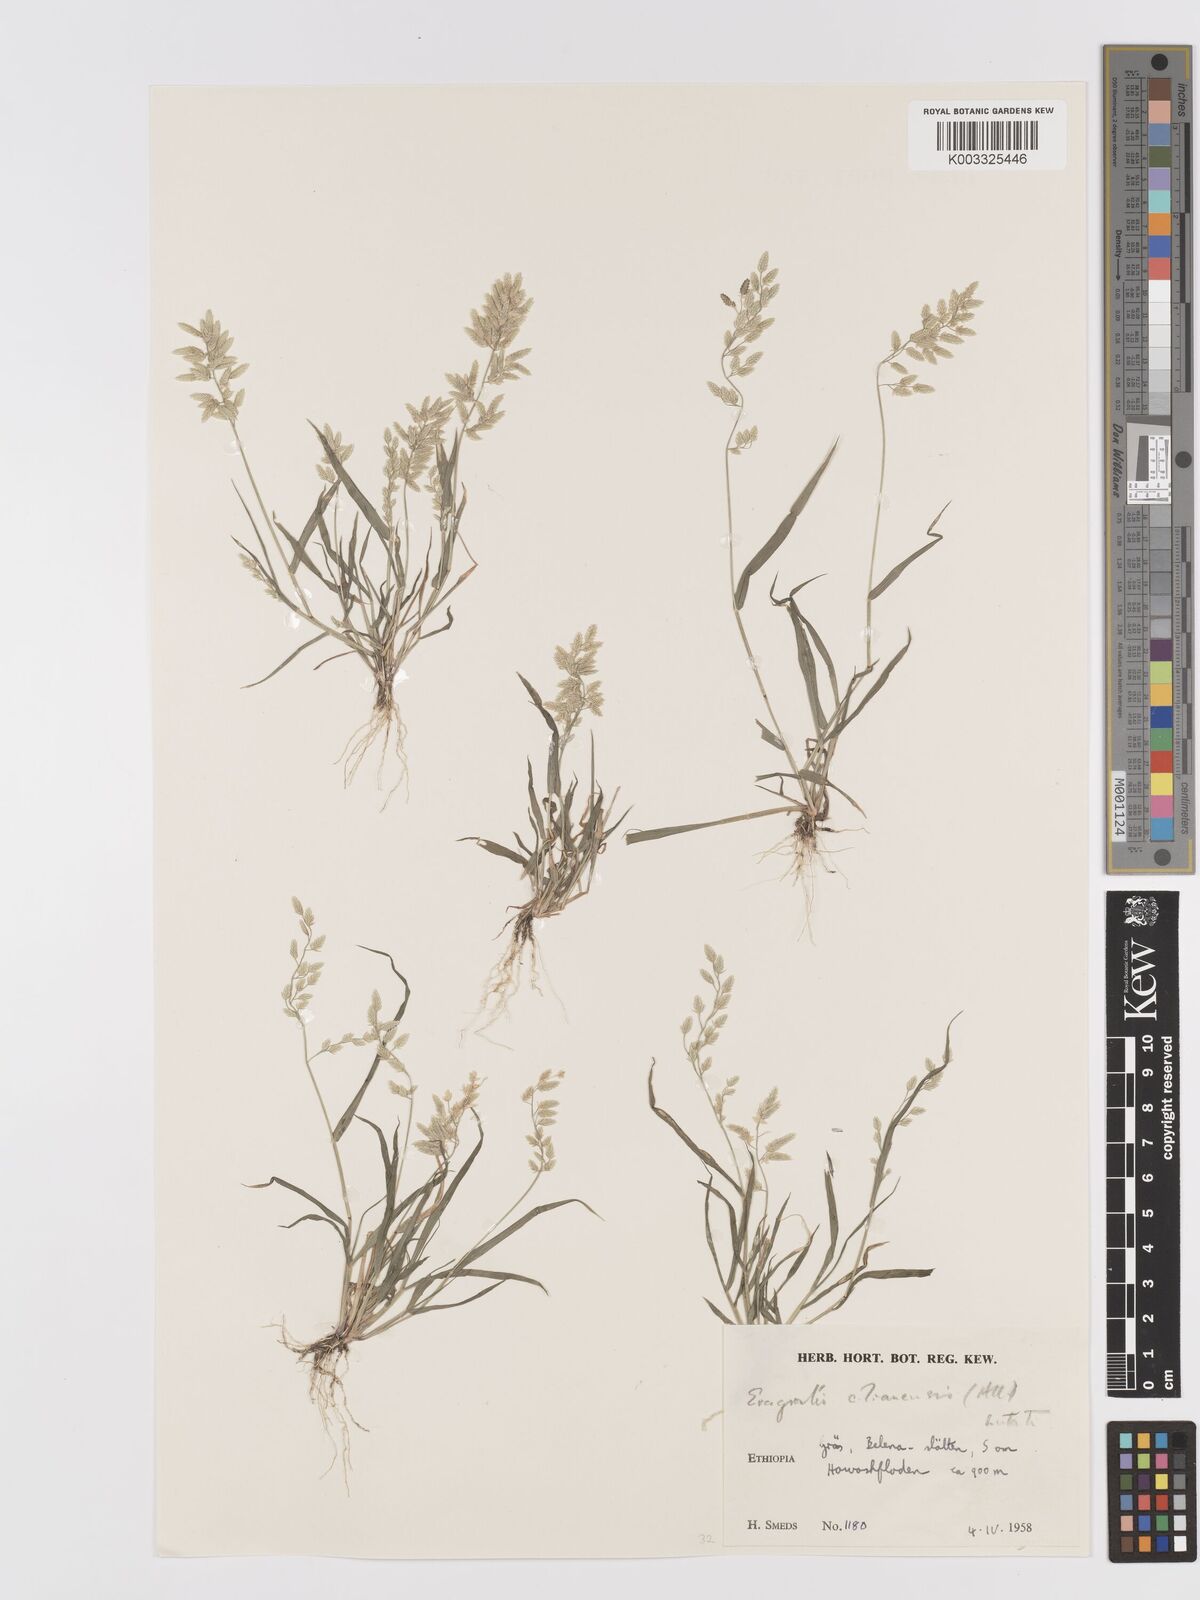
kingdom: Plantae
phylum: Tracheophyta
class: Liliopsida
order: Poales
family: Poaceae
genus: Eragrostis
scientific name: Eragrostis cilianensis
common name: Stinkgrass
